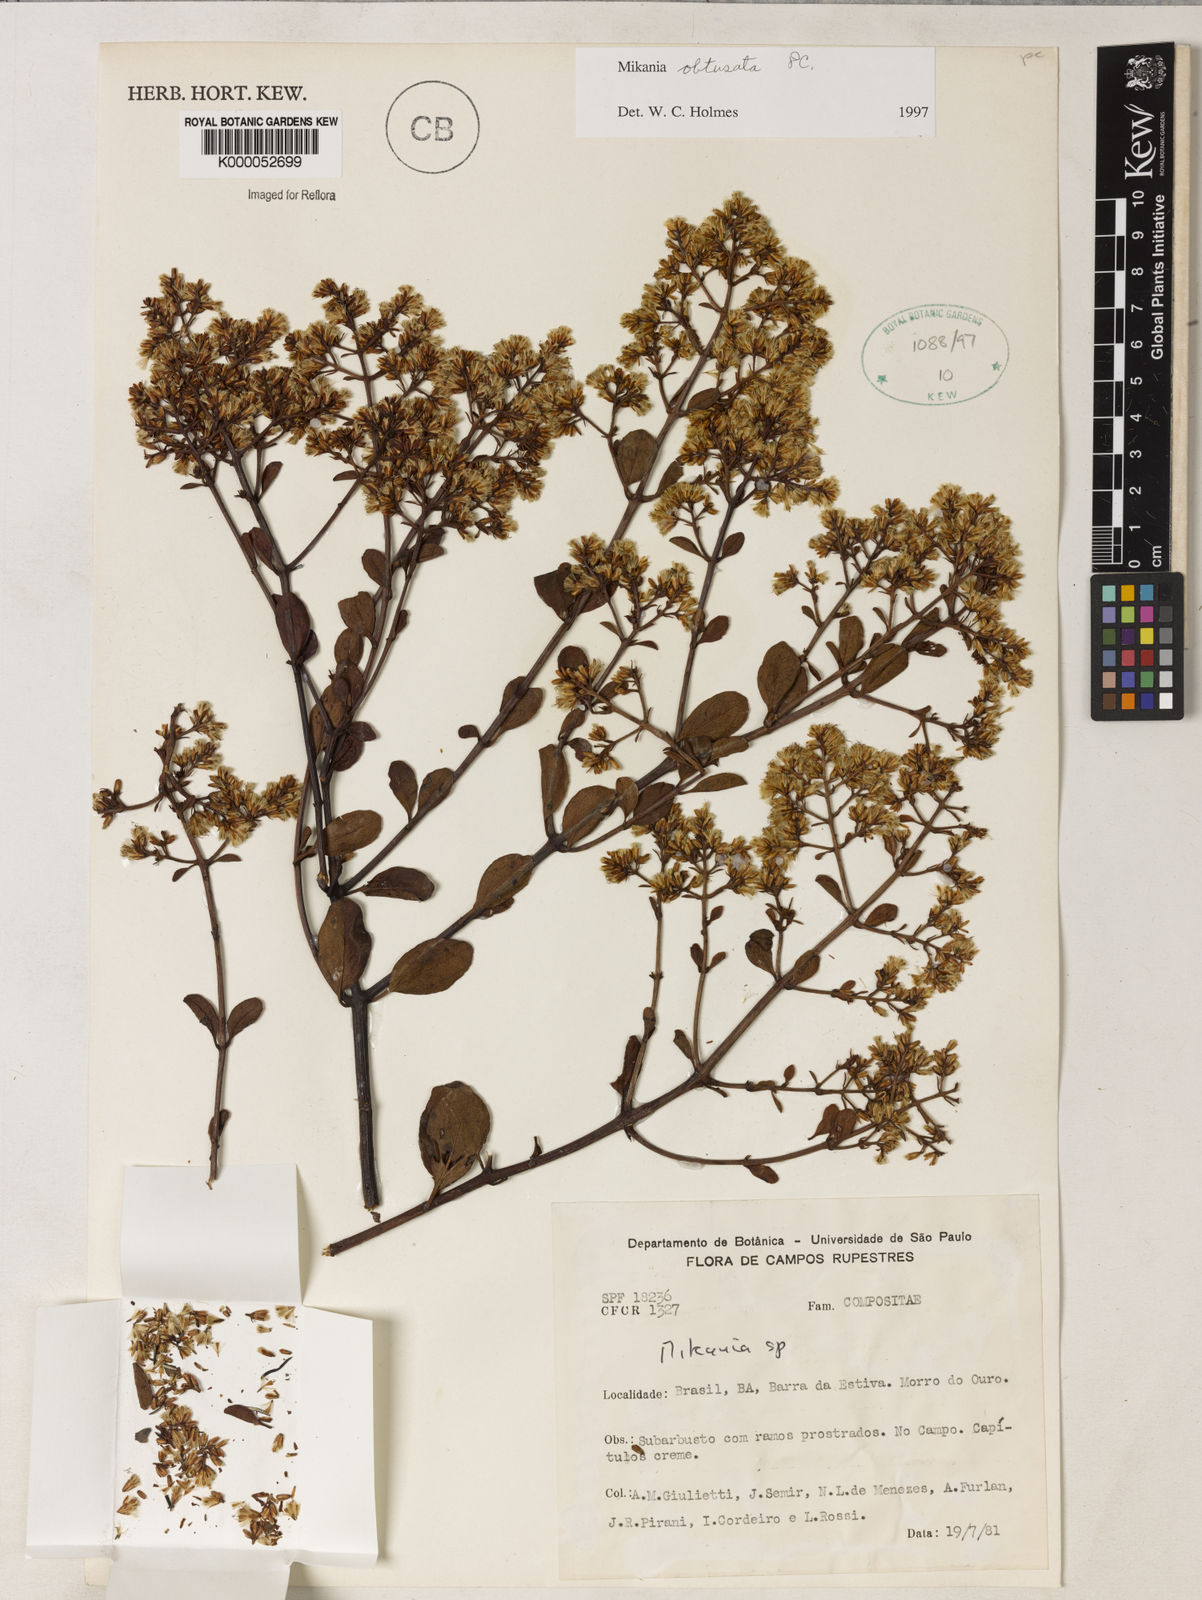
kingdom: Plantae
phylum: Tracheophyta
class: Magnoliopsida
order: Asterales
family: Asteraceae
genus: Mikania
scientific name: Mikania obtusata
